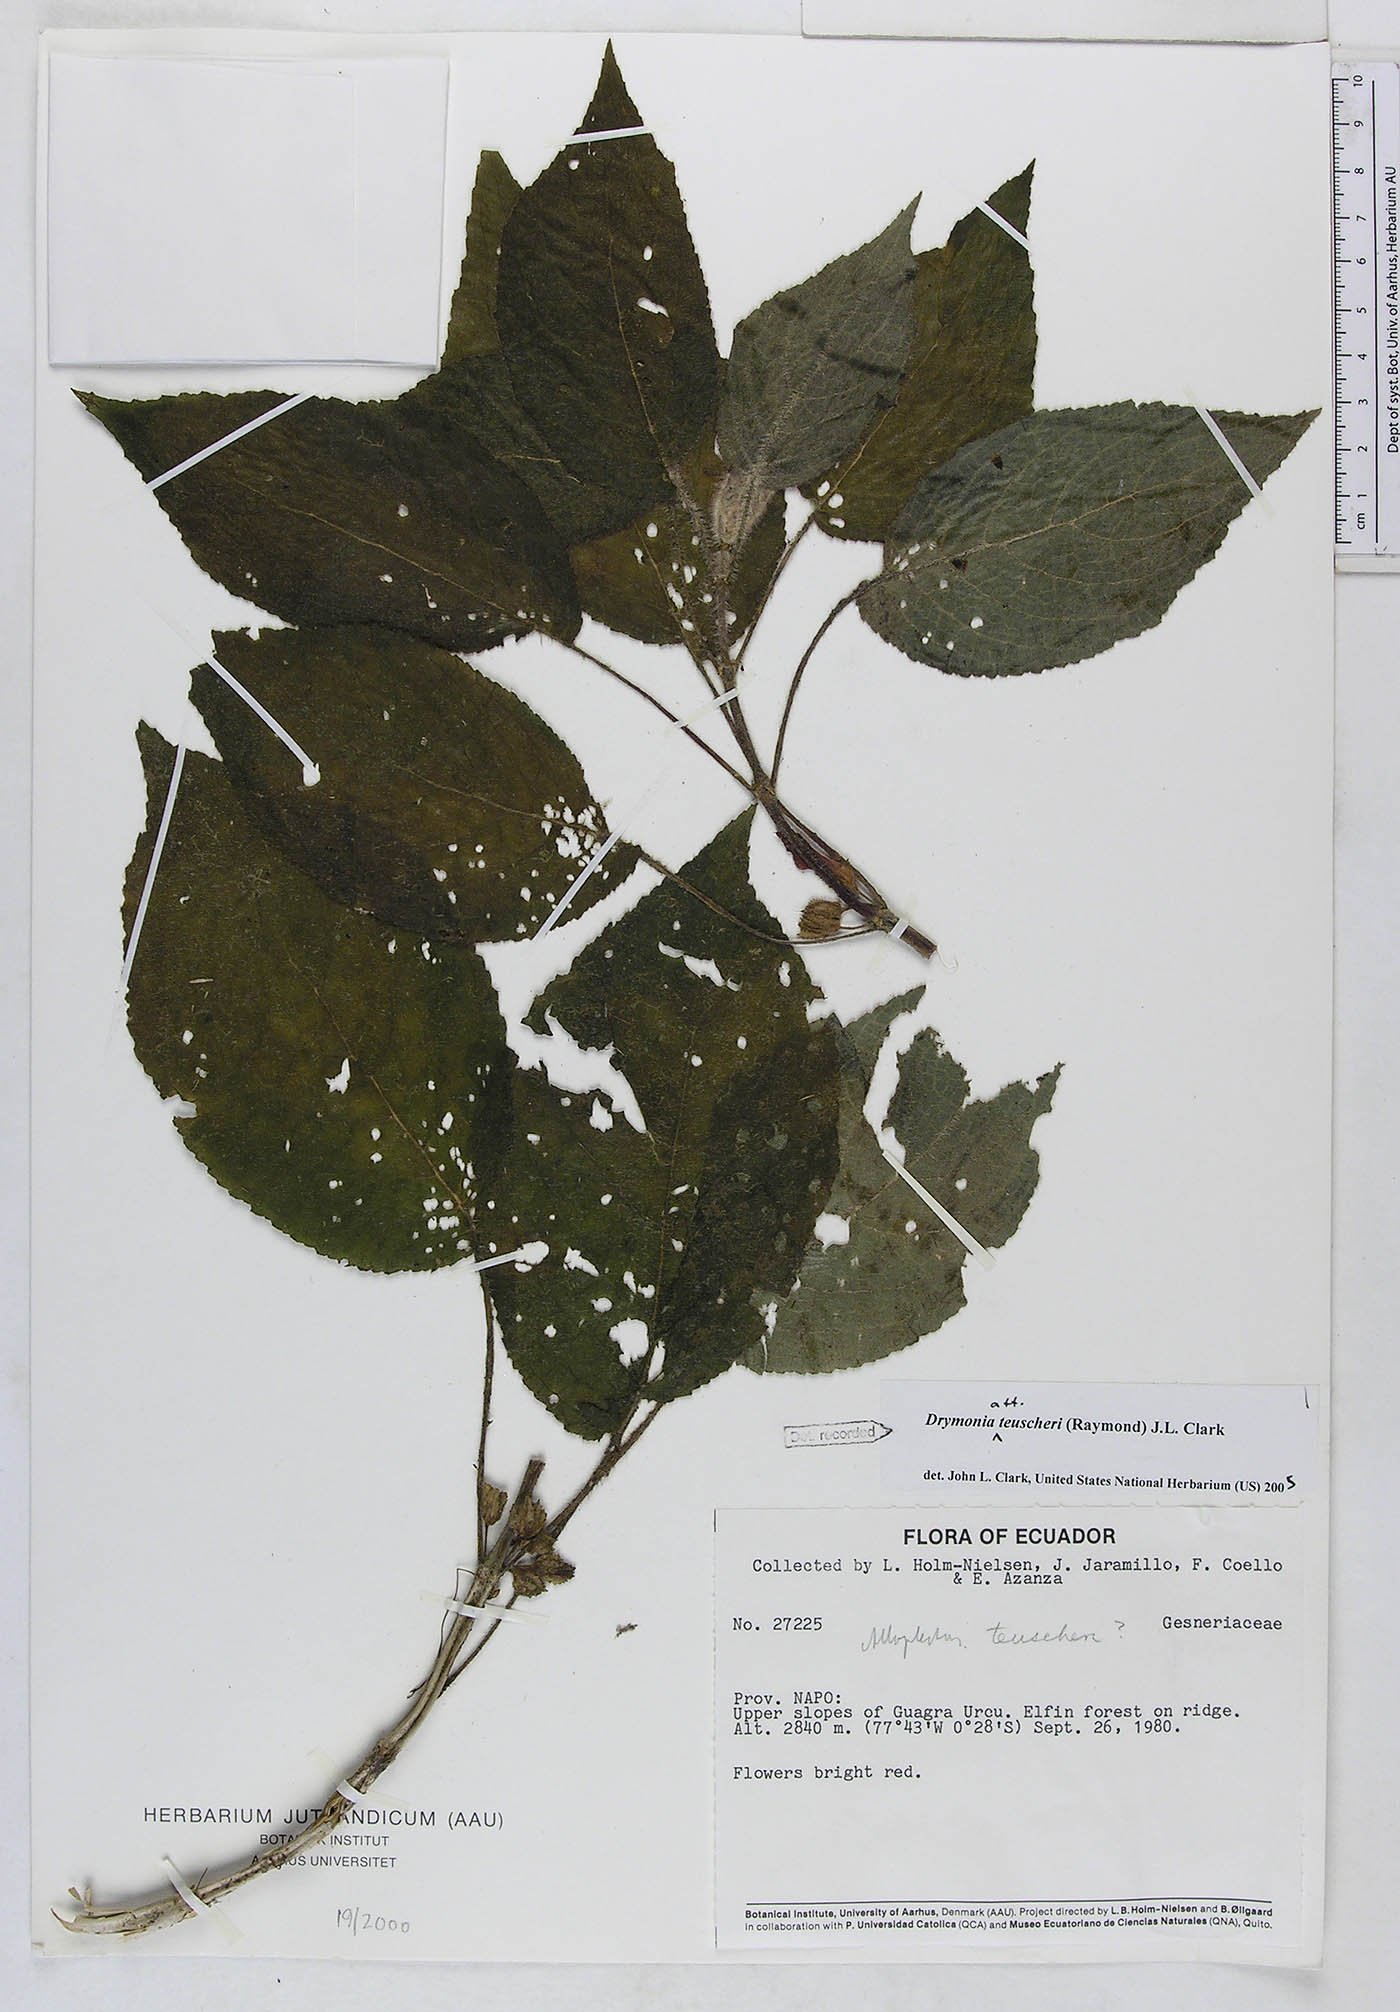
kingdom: Plantae
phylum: Tracheophyta
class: Magnoliopsida
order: Lamiales
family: Gesneriaceae
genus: Drymonia
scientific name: Drymonia teuscheri
